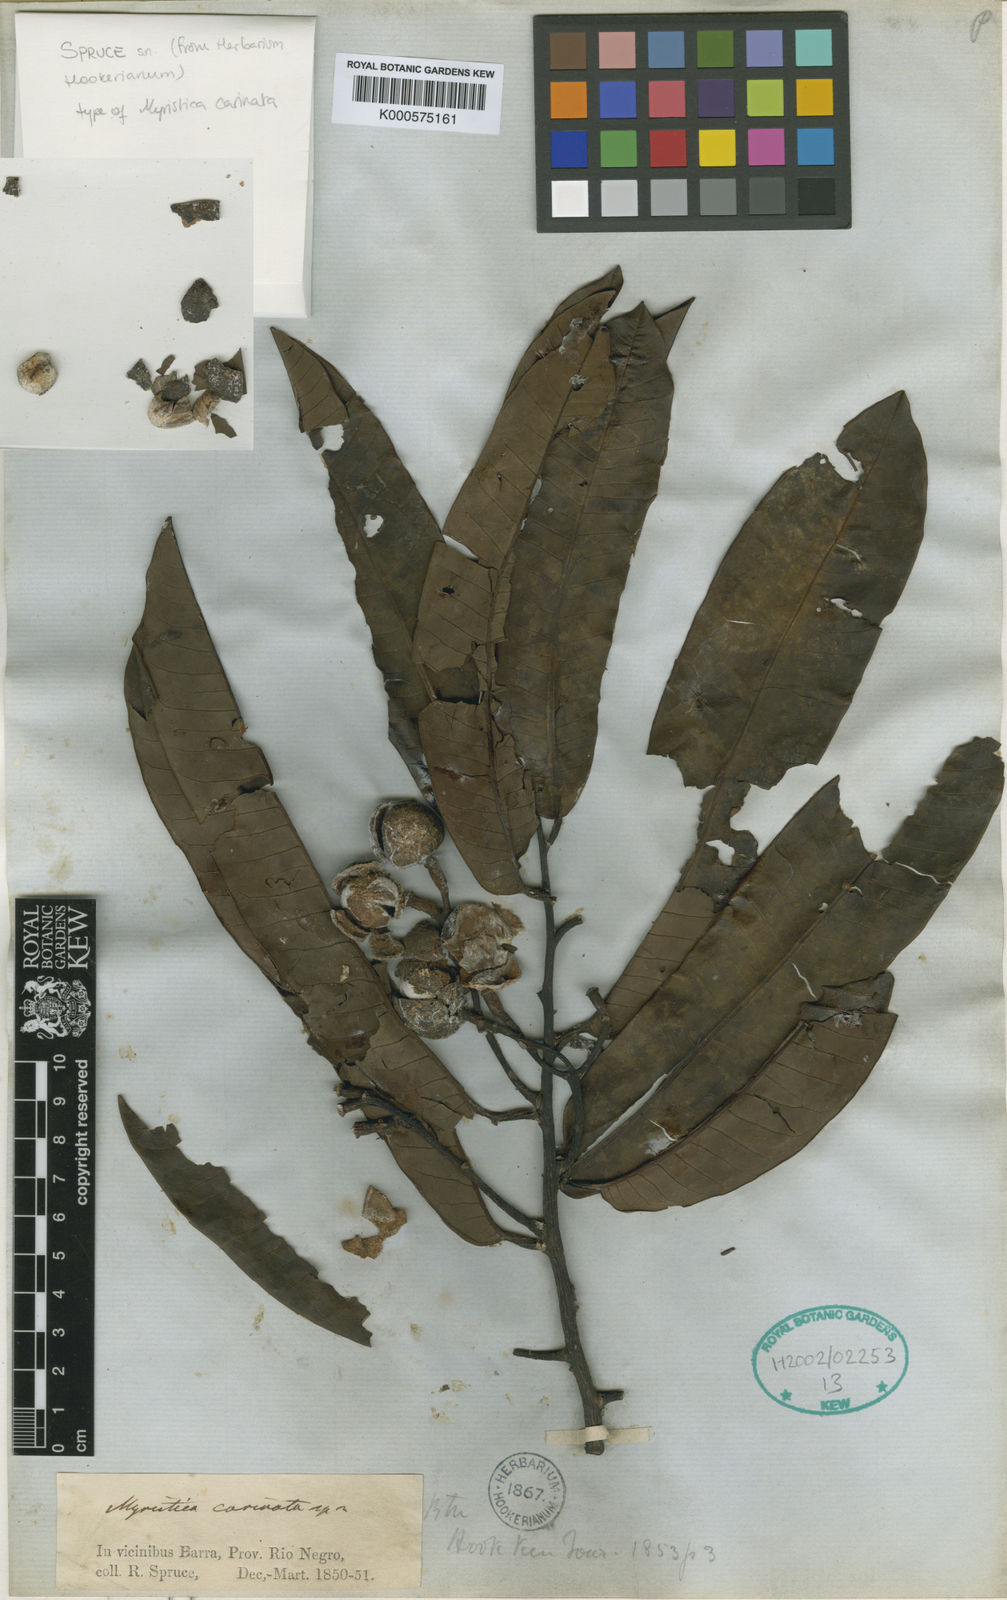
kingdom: Plantae
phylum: Tracheophyta
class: Magnoliopsida
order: Magnoliales
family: Myristicaceae
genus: Virola
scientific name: Virola carinata
